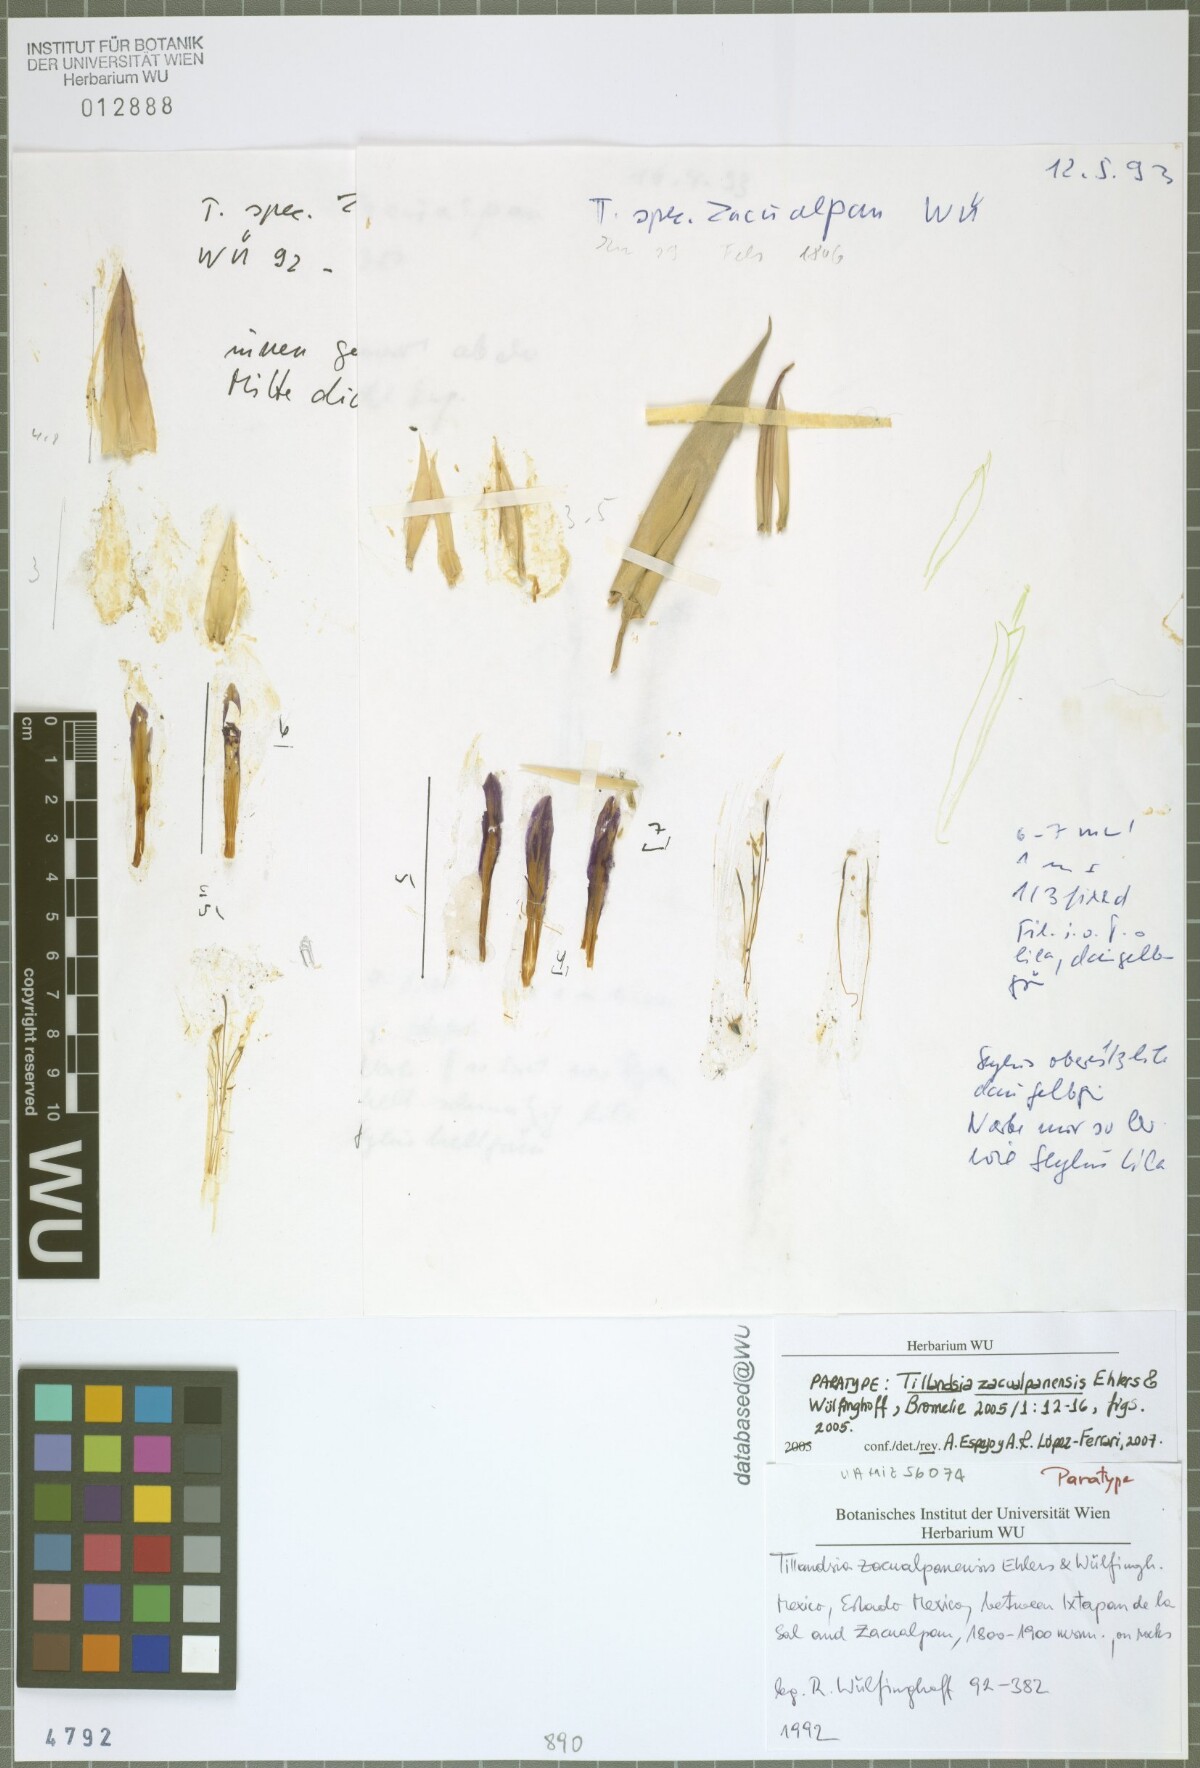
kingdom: Plantae
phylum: Tracheophyta
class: Liliopsida
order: Poales
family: Bromeliaceae
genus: Tillandsia
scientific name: Tillandsia zacualpanensis
